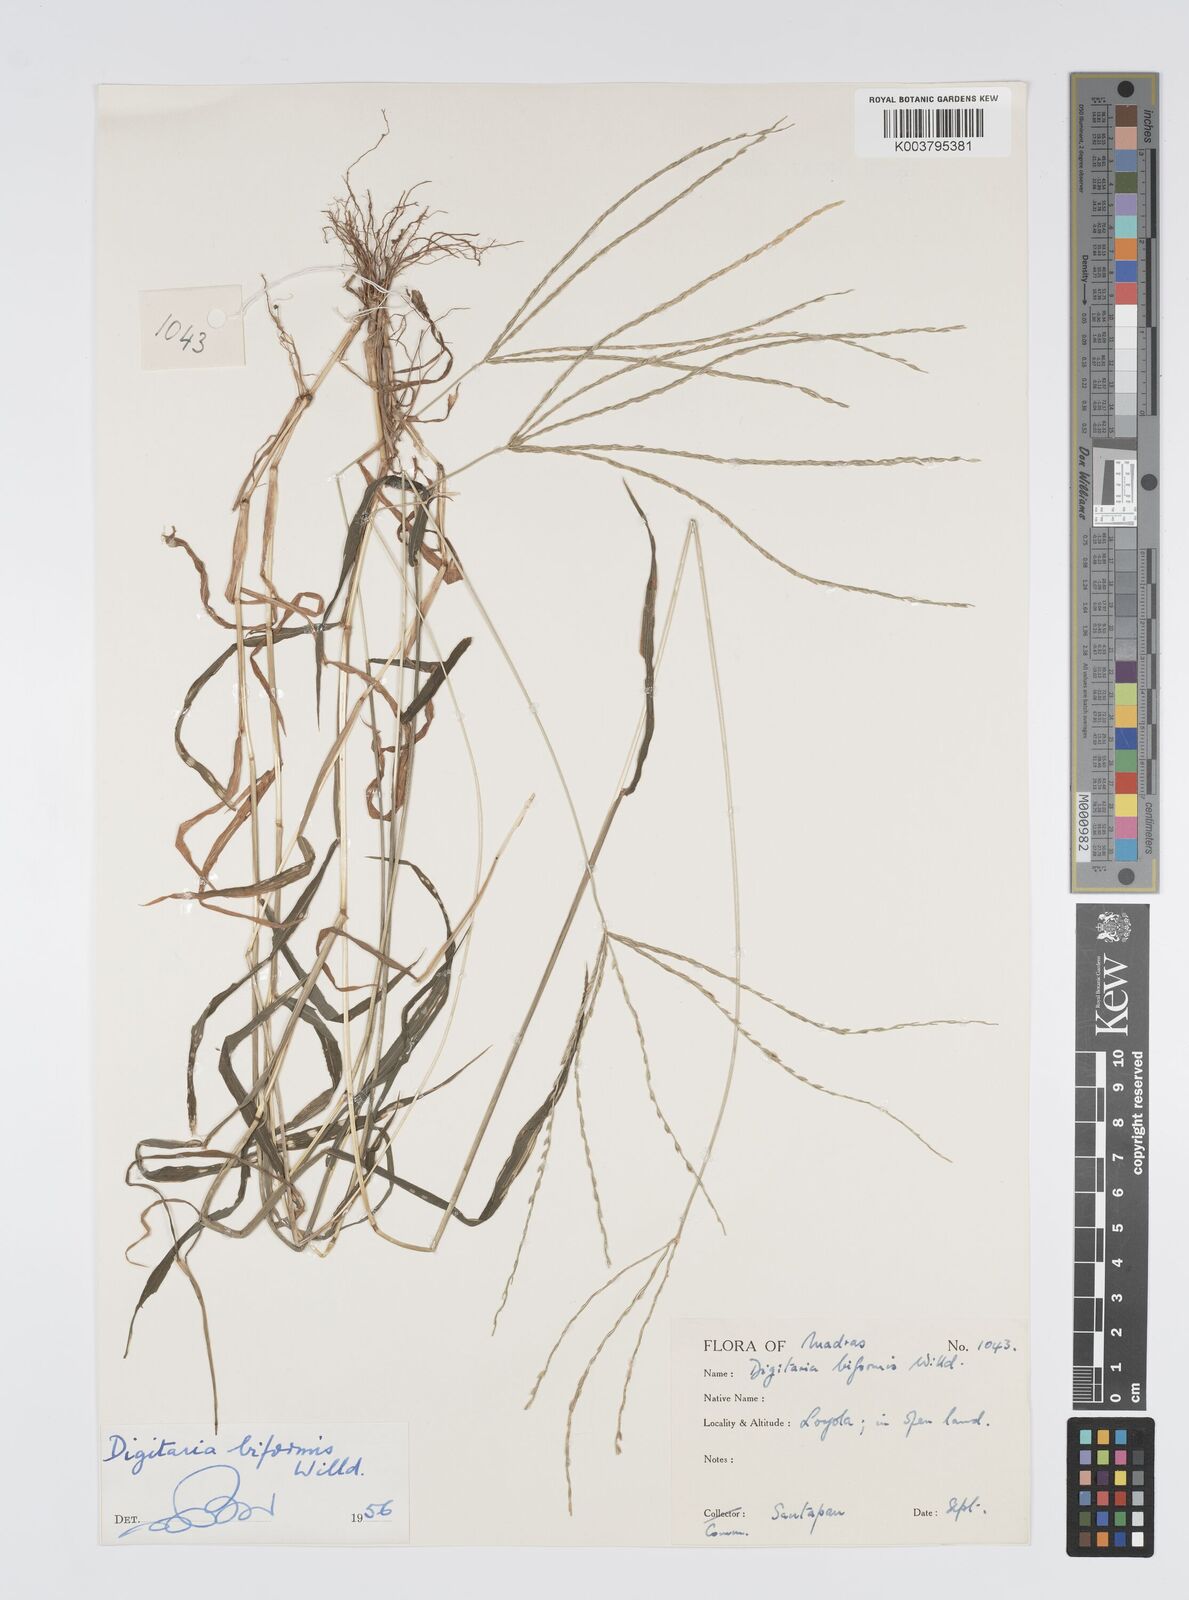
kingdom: Plantae
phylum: Tracheophyta
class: Liliopsida
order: Poales
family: Poaceae
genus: Digitaria
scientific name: Digitaria ciliaris
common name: Tropical finger-grass
